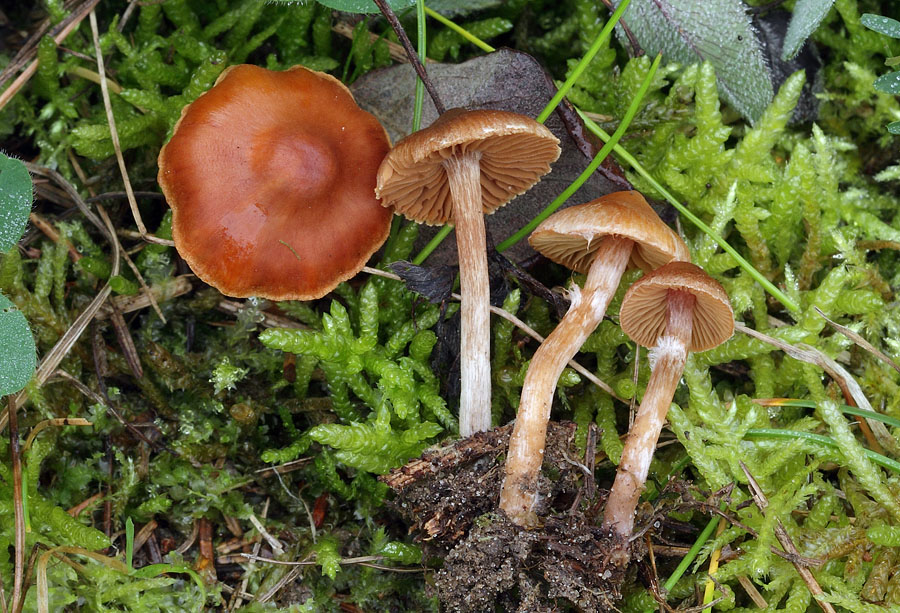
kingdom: Fungi
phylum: Basidiomycota
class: Agaricomycetes
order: Agaricales
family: Cortinariaceae
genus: Cortinarius
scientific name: Cortinarius parvannulatus
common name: krave-slørhat
